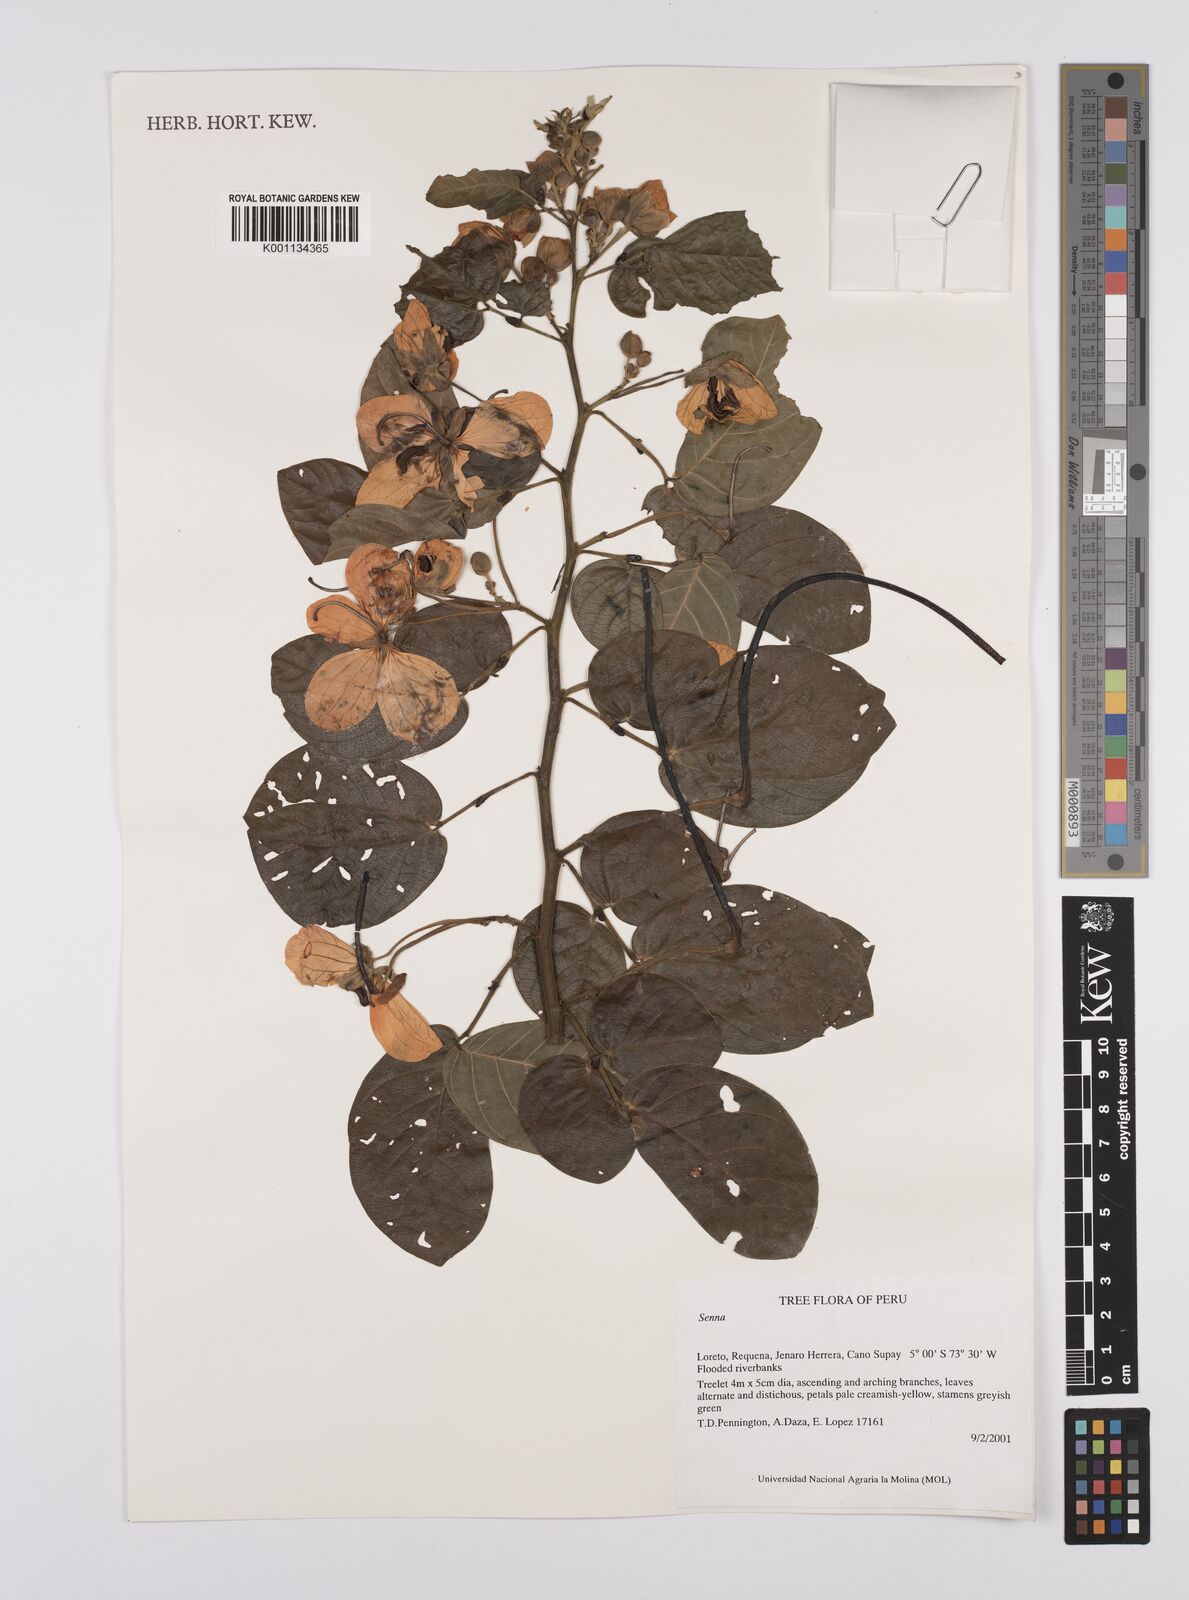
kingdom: Plantae
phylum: Tracheophyta
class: Magnoliopsida
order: Fabales
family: Fabaceae
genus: Senna
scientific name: Senna
